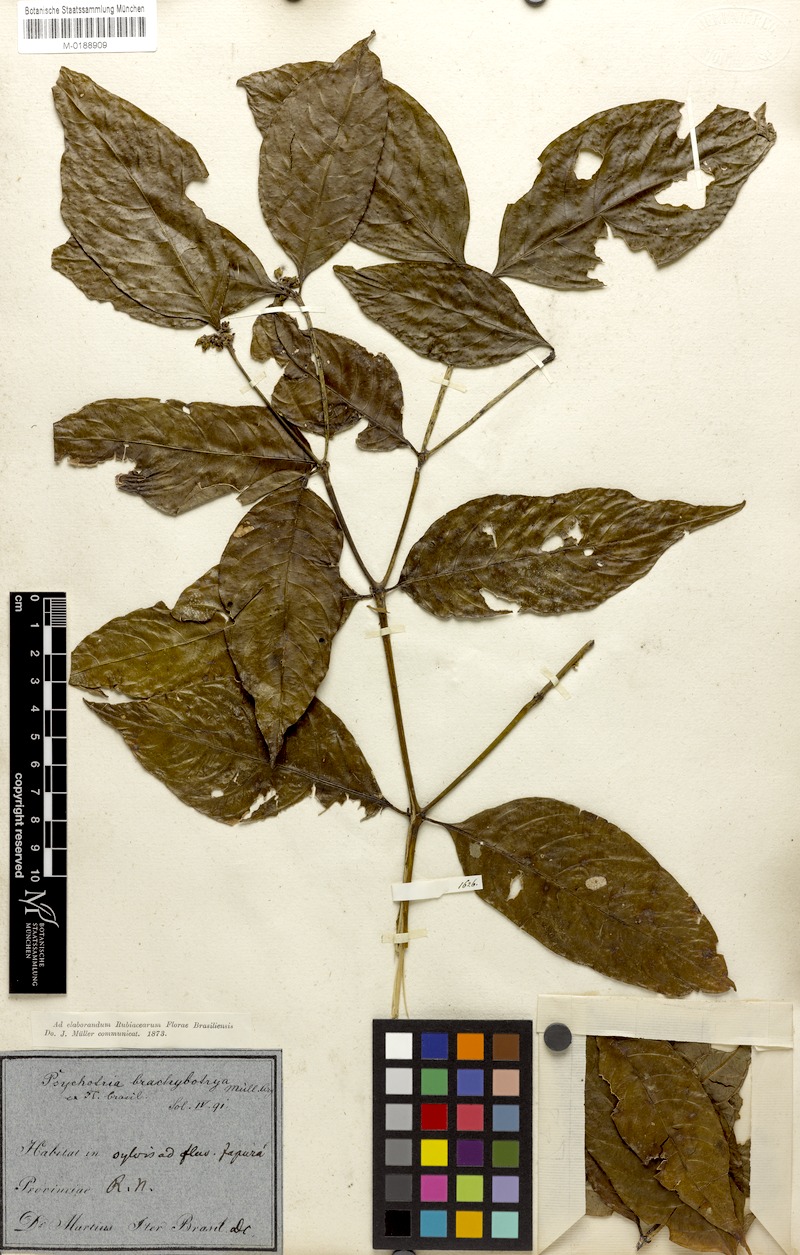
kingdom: Plantae
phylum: Tracheophyta
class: Magnoliopsida
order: Gentianales
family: Rubiaceae
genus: Palicourea
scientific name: Palicourea gracilenta
